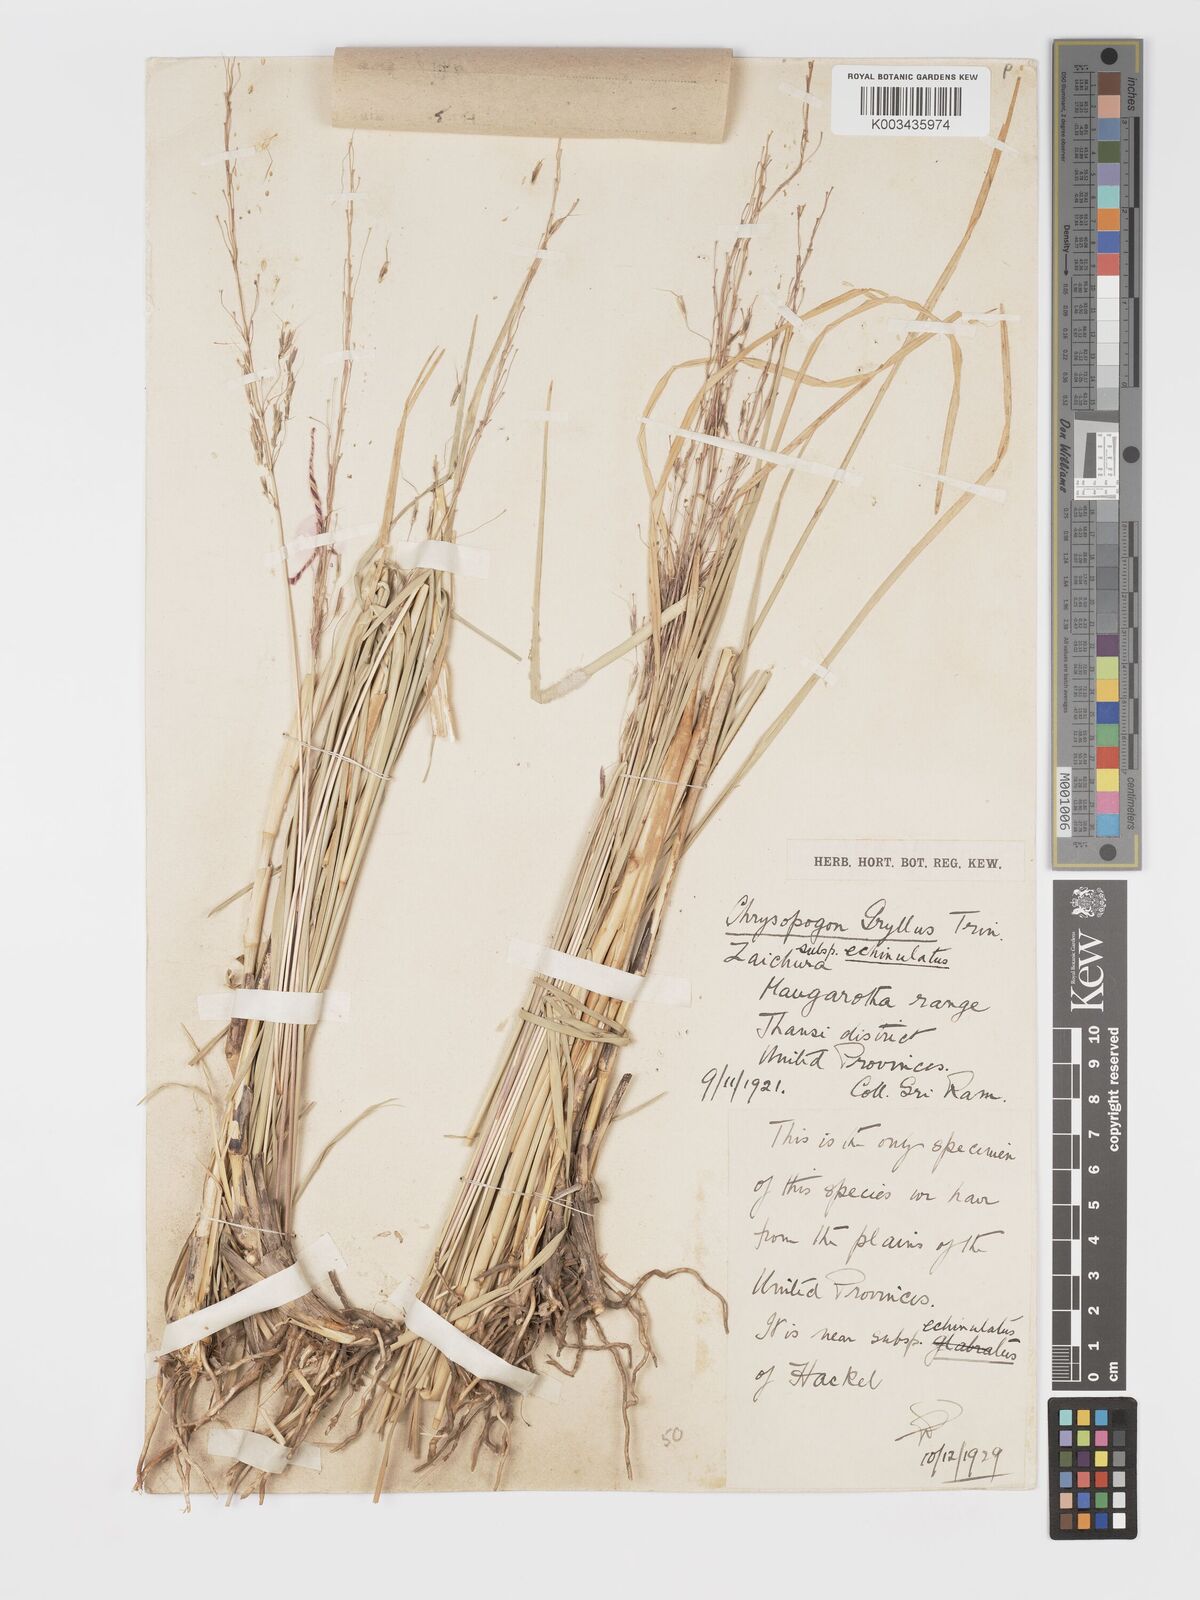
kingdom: Plantae
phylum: Tracheophyta
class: Liliopsida
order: Poales
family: Poaceae
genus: Chrysopogon
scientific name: Chrysopogon gryllus
